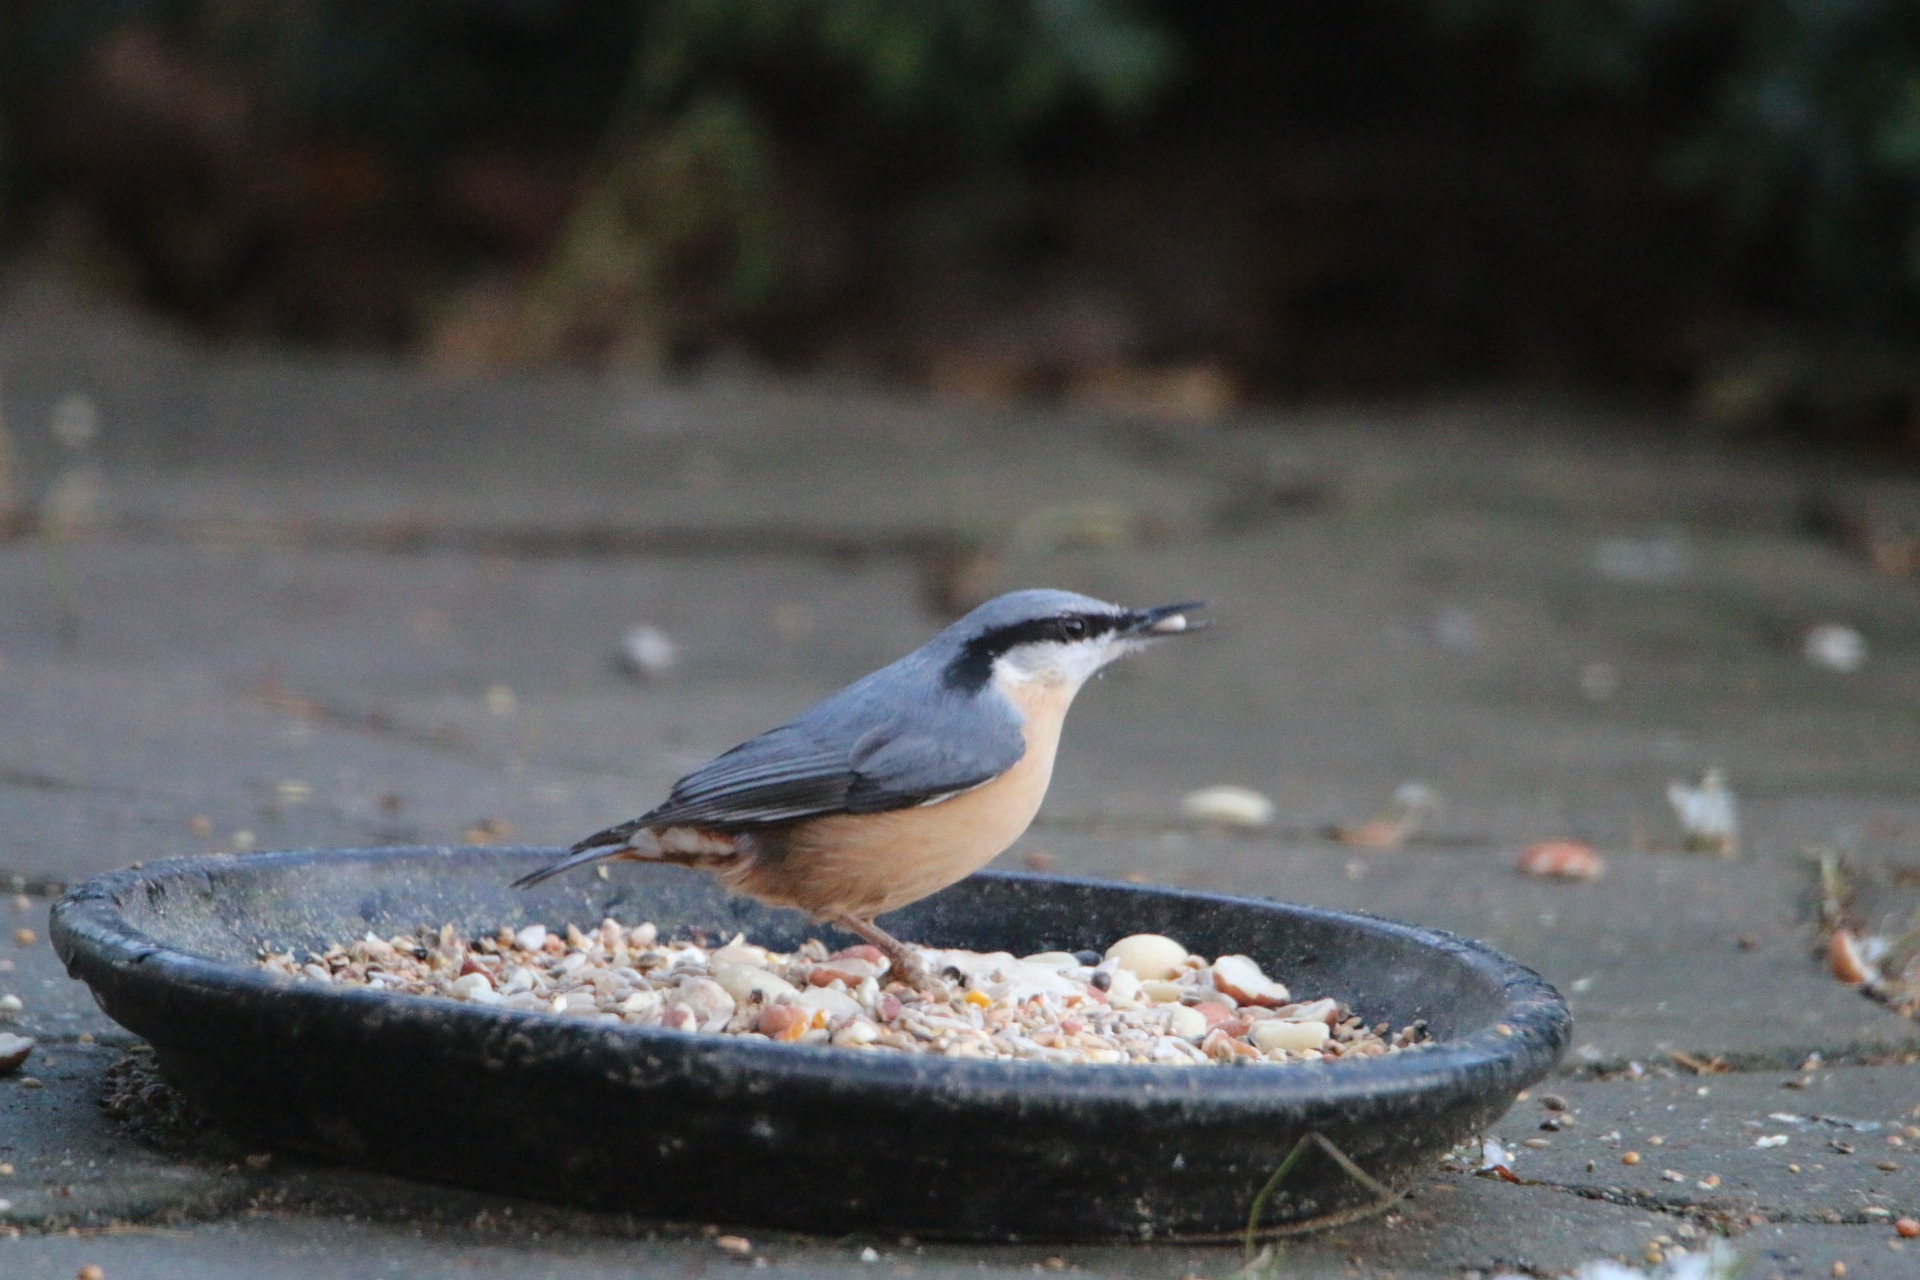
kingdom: Animalia
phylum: Chordata
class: Aves
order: Passeriformes
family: Sittidae
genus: Sitta
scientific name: Sitta europaea
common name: Spætmejse
